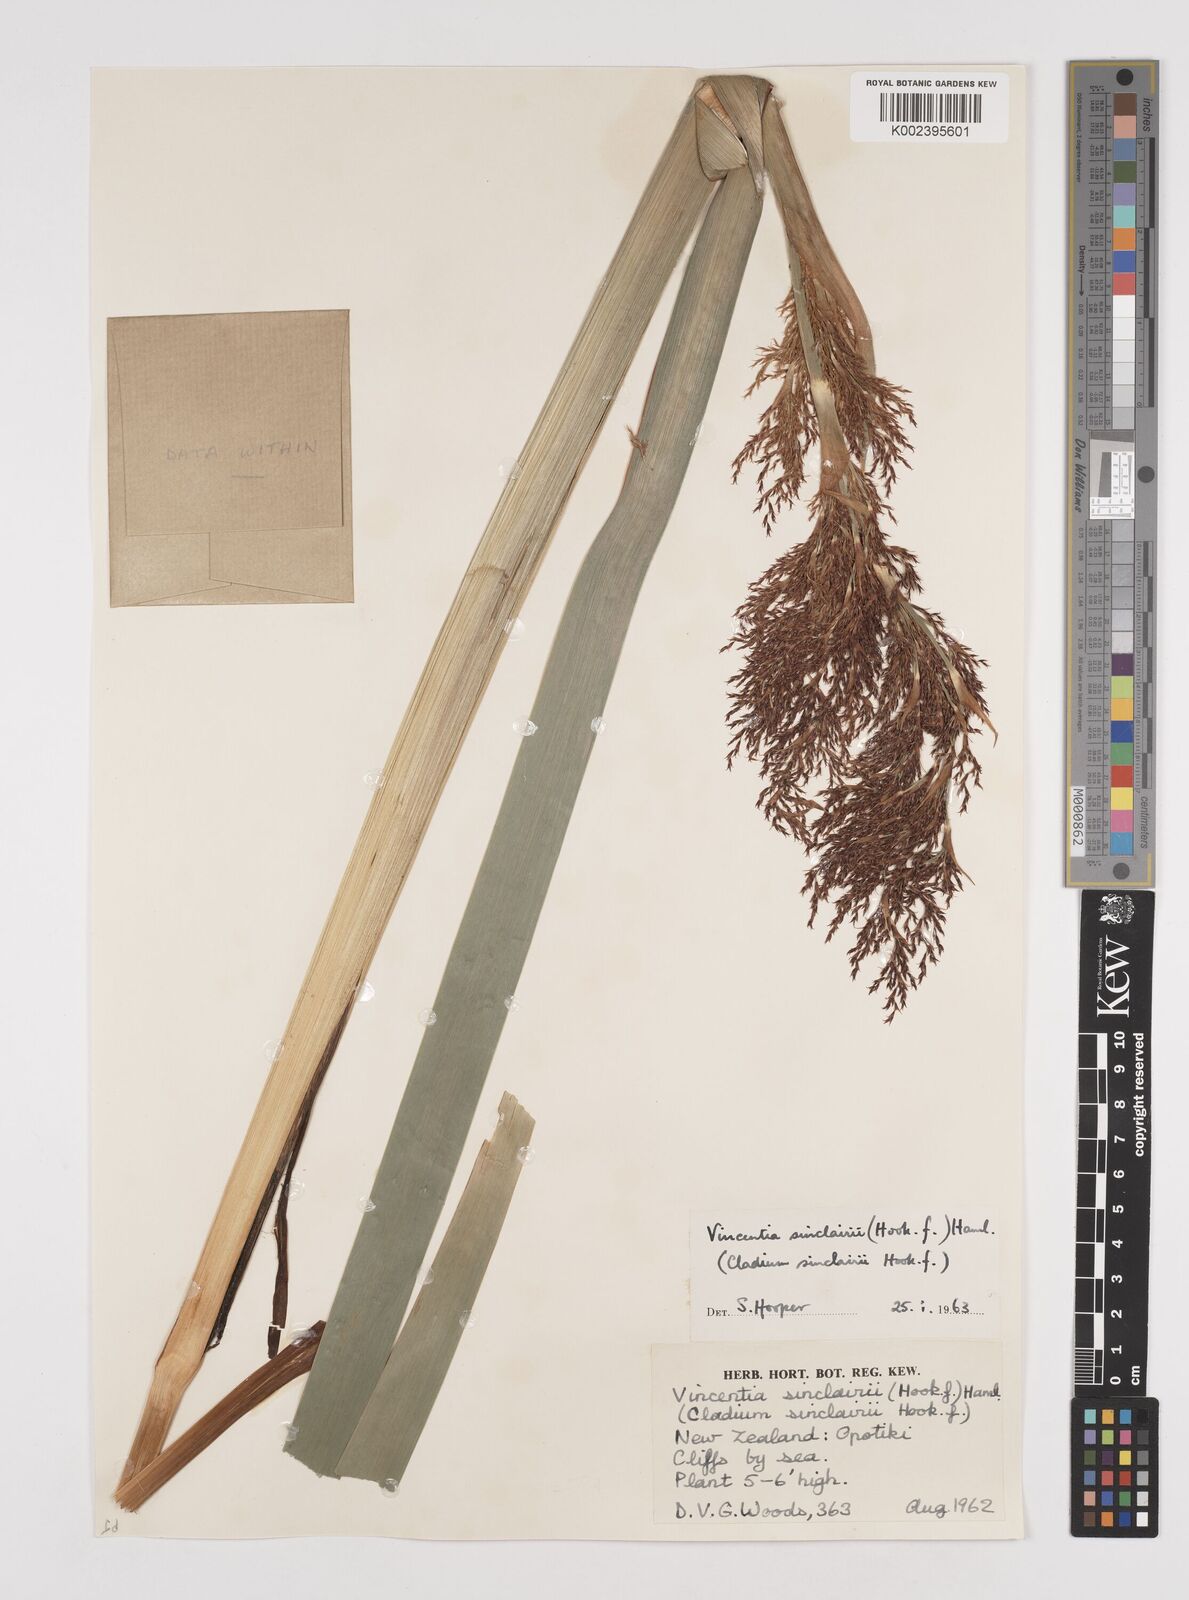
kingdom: Plantae
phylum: Tracheophyta
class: Liliopsida
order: Poales
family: Cyperaceae
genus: Machaerina
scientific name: Machaerina sinclairii
